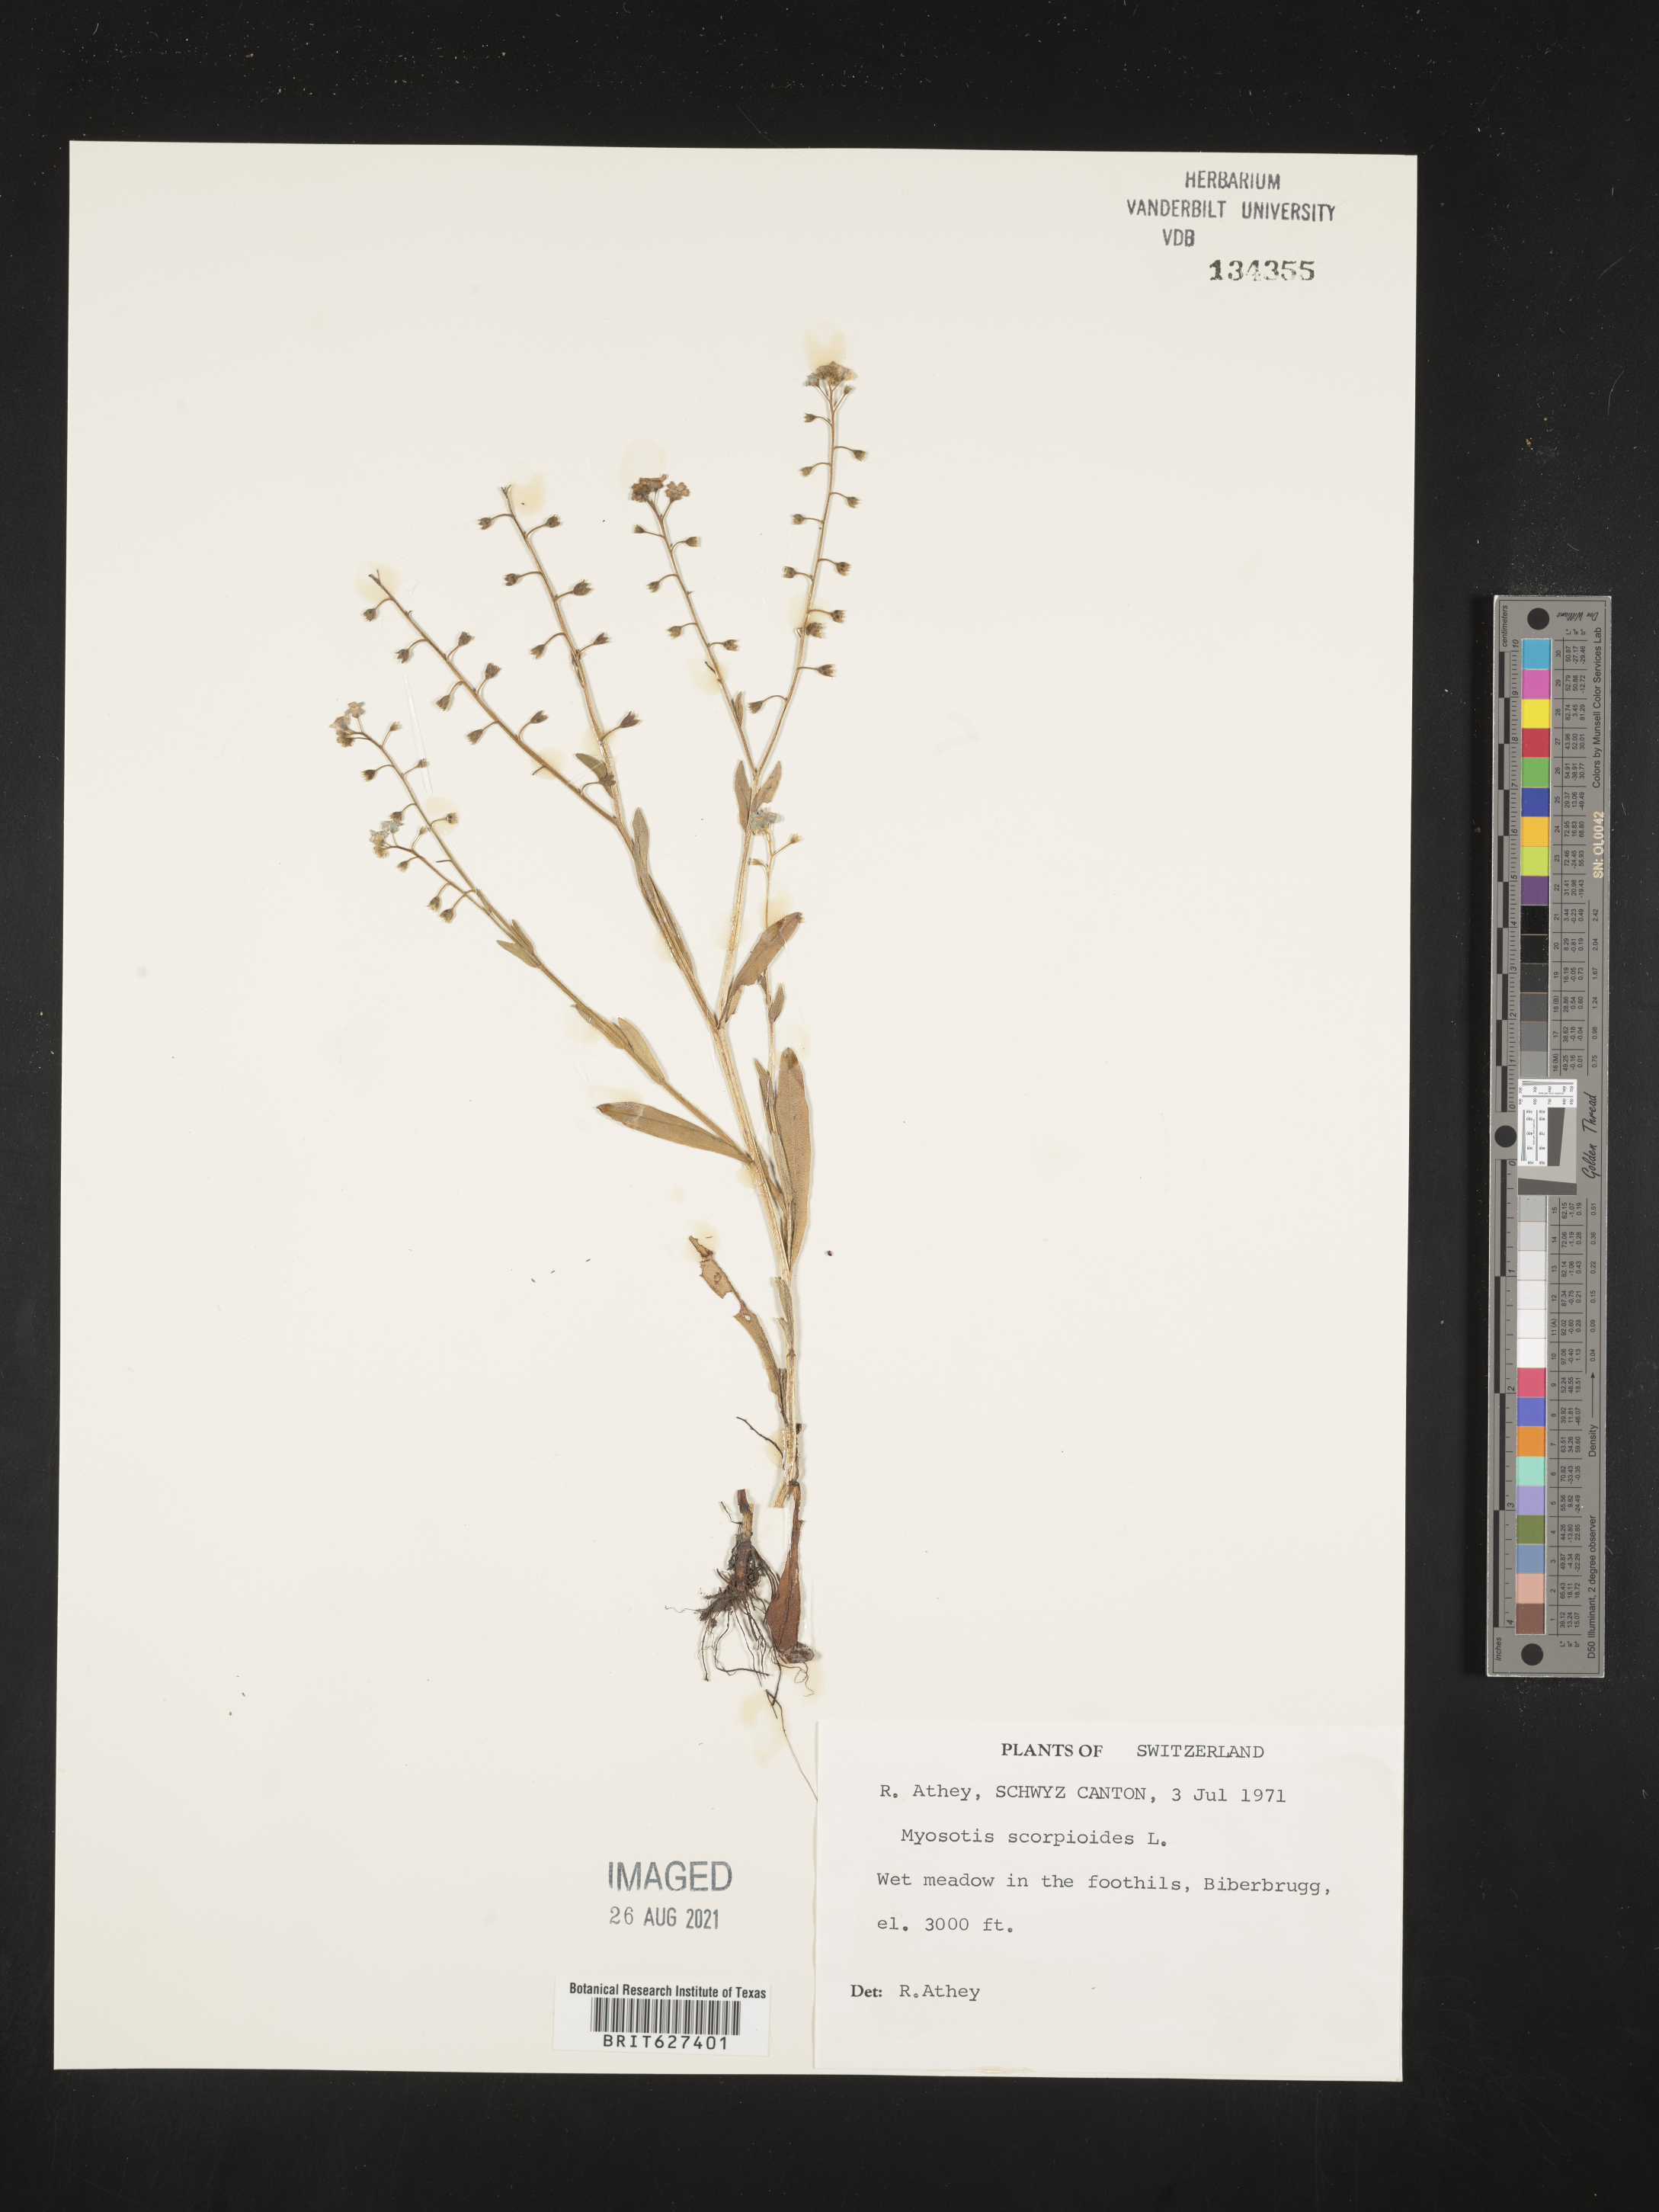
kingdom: Plantae
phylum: Tracheophyta
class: Magnoliopsida
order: Boraginales
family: Boraginaceae
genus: Myosotis
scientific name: Myosotis scorpioides
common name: Water forget-me-not
